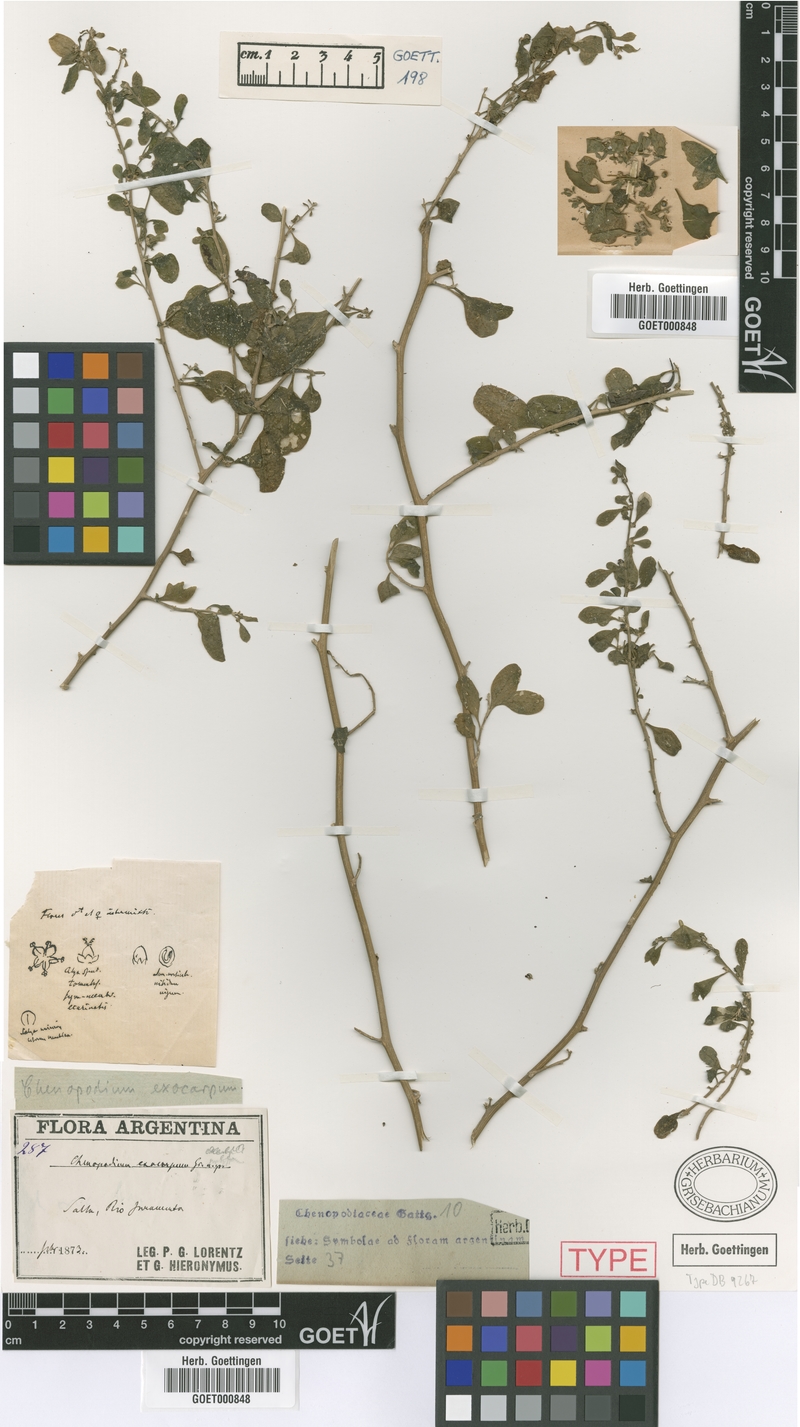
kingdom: Plantae
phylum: Tracheophyta
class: Magnoliopsida
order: Caryophyllales
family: Amaranthaceae
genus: Holmbergia
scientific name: Holmbergia tweedii
